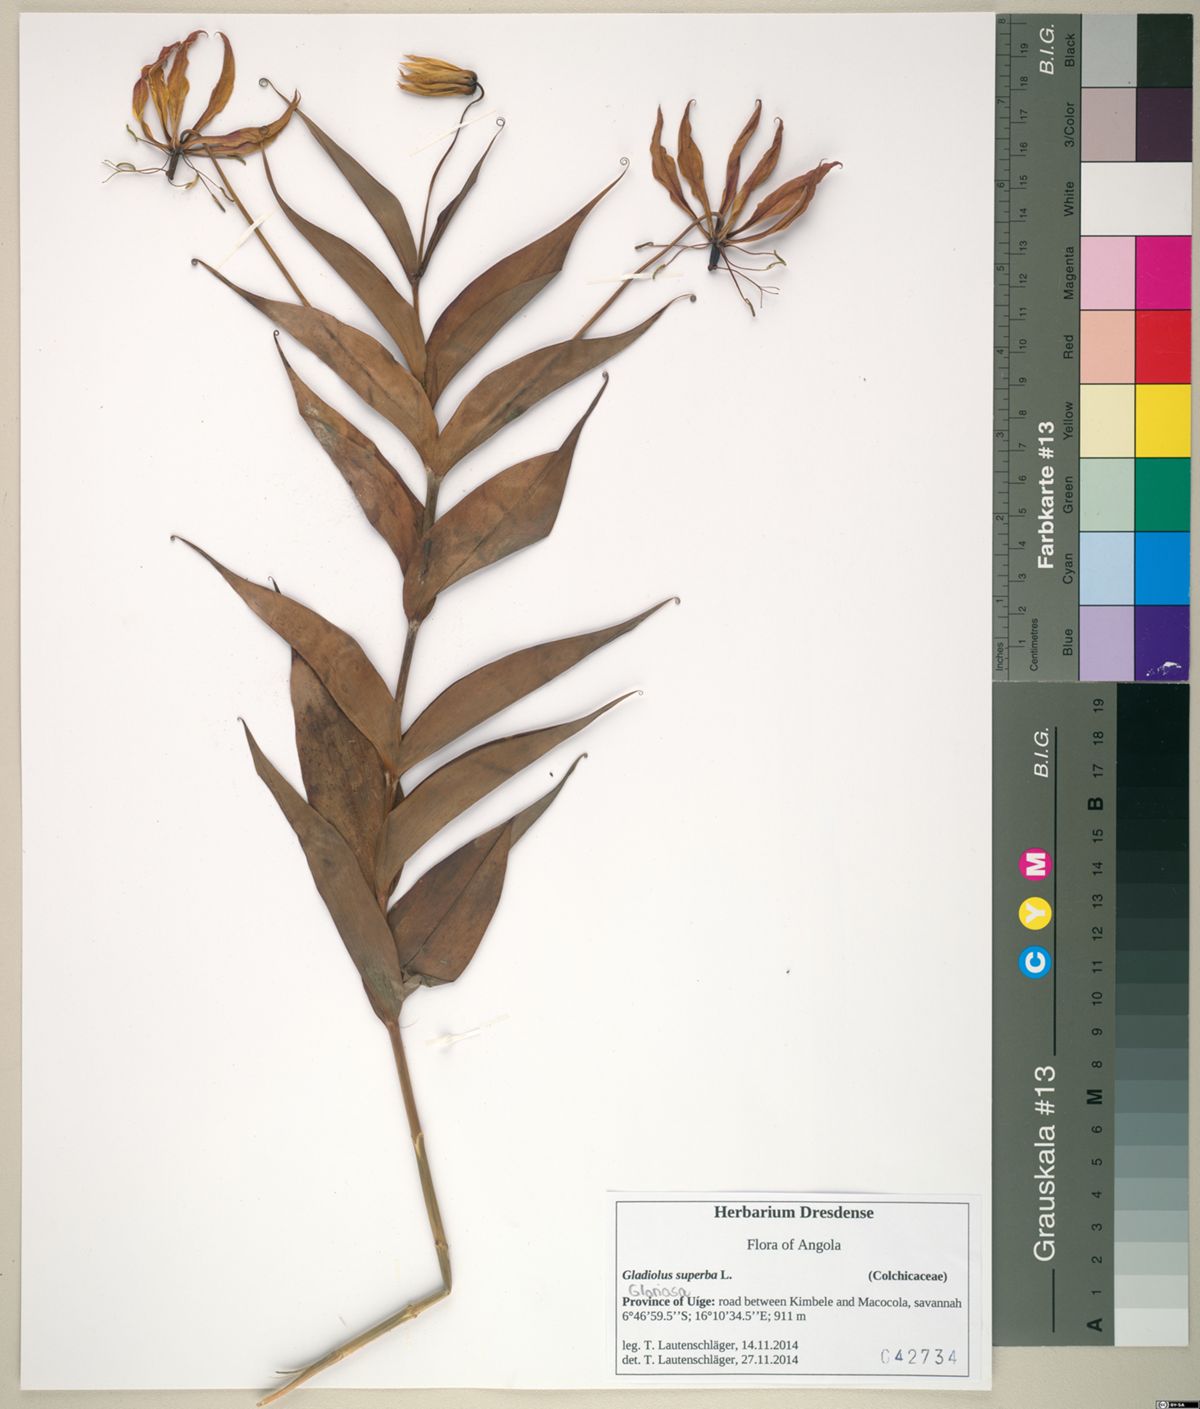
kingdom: Plantae
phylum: Tracheophyta
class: Liliopsida
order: Liliales
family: Colchicaceae
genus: Gloriosa
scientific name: Gloriosa superba
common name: Flame lily
